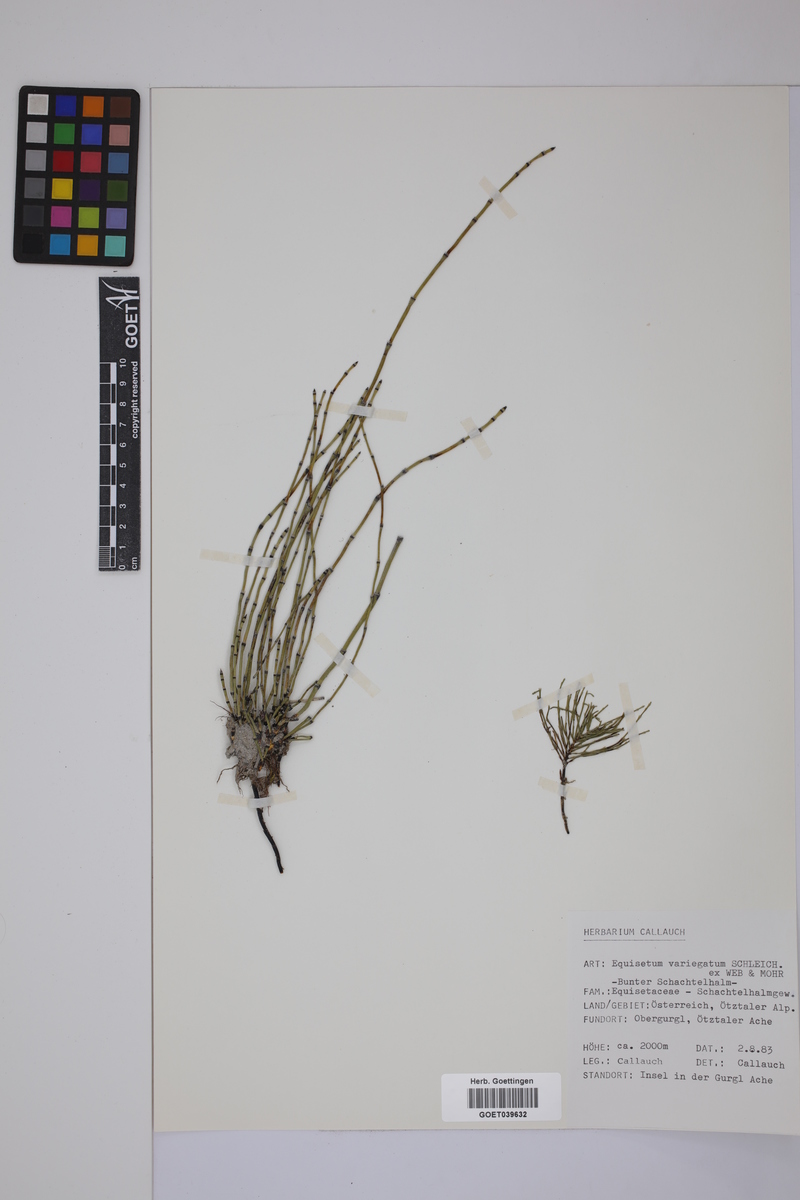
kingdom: Plantae
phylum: Tracheophyta
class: Polypodiopsida
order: Equisetales
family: Equisetaceae
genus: Equisetum
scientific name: Equisetum variegatum
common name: Variegated horsetail
